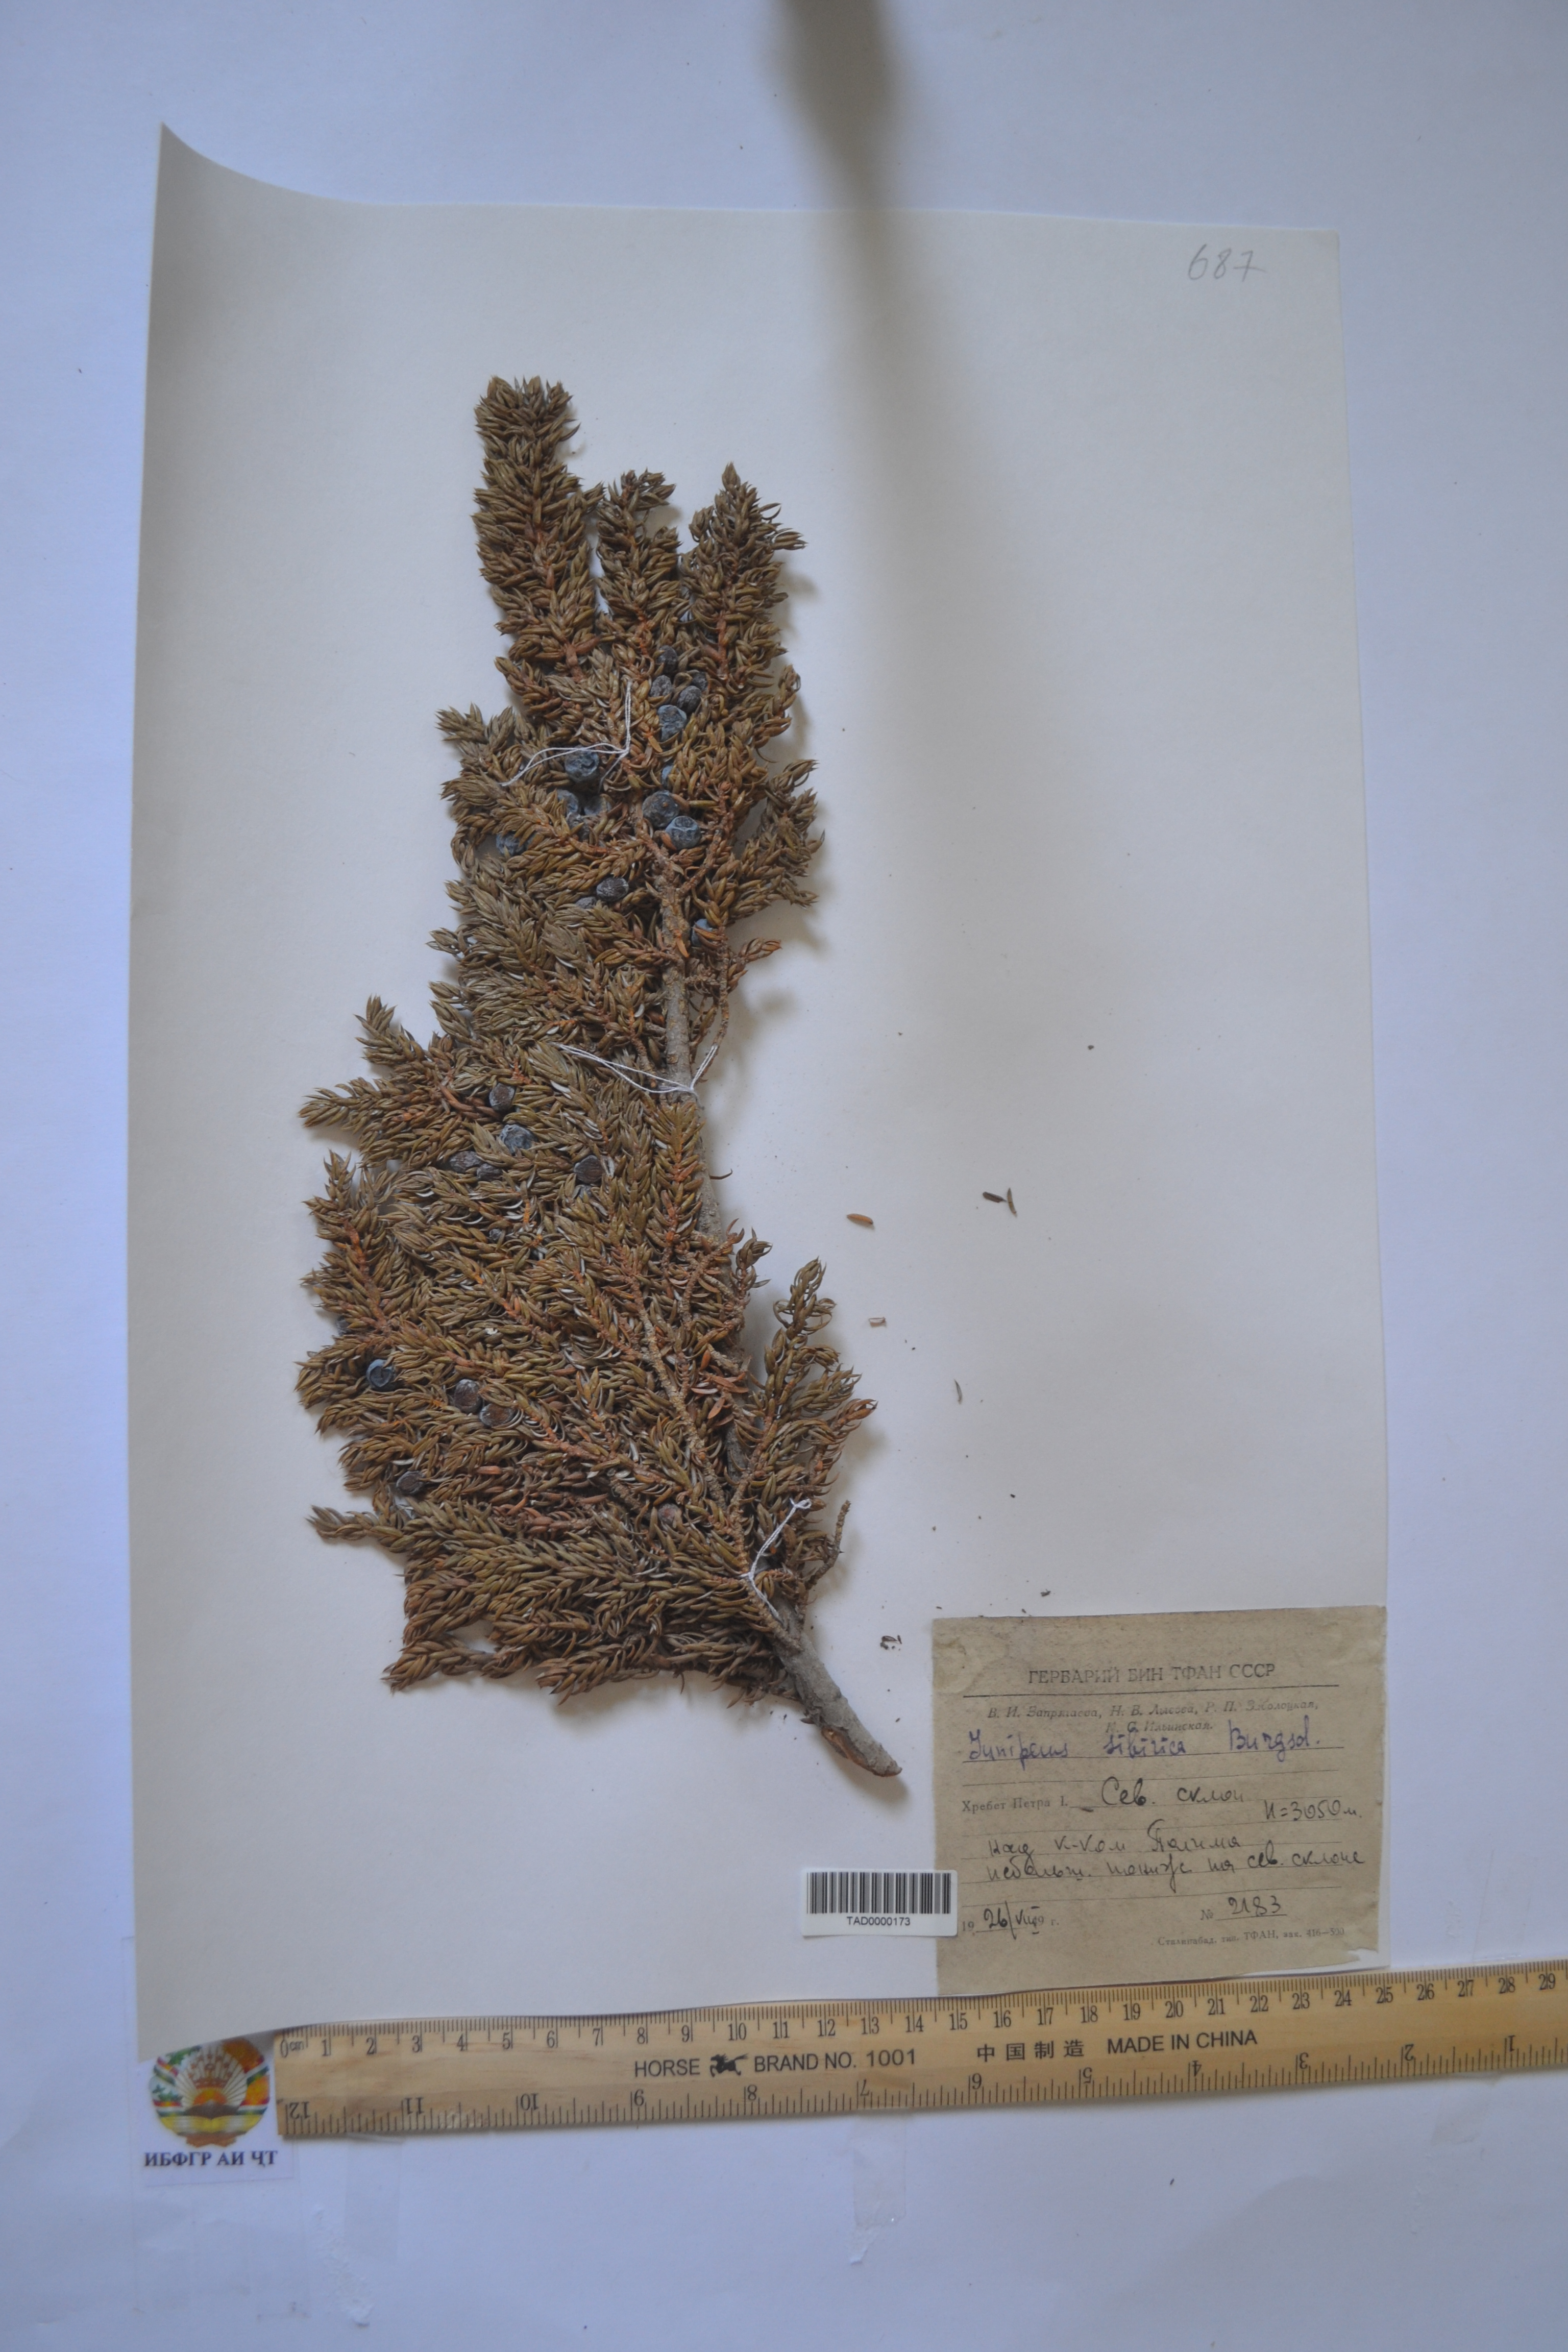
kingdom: Plantae
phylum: Tracheophyta
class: Pinopsida
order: Pinales
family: Cupressaceae
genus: Juniperus
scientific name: Juniperus communis
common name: Common juniper
